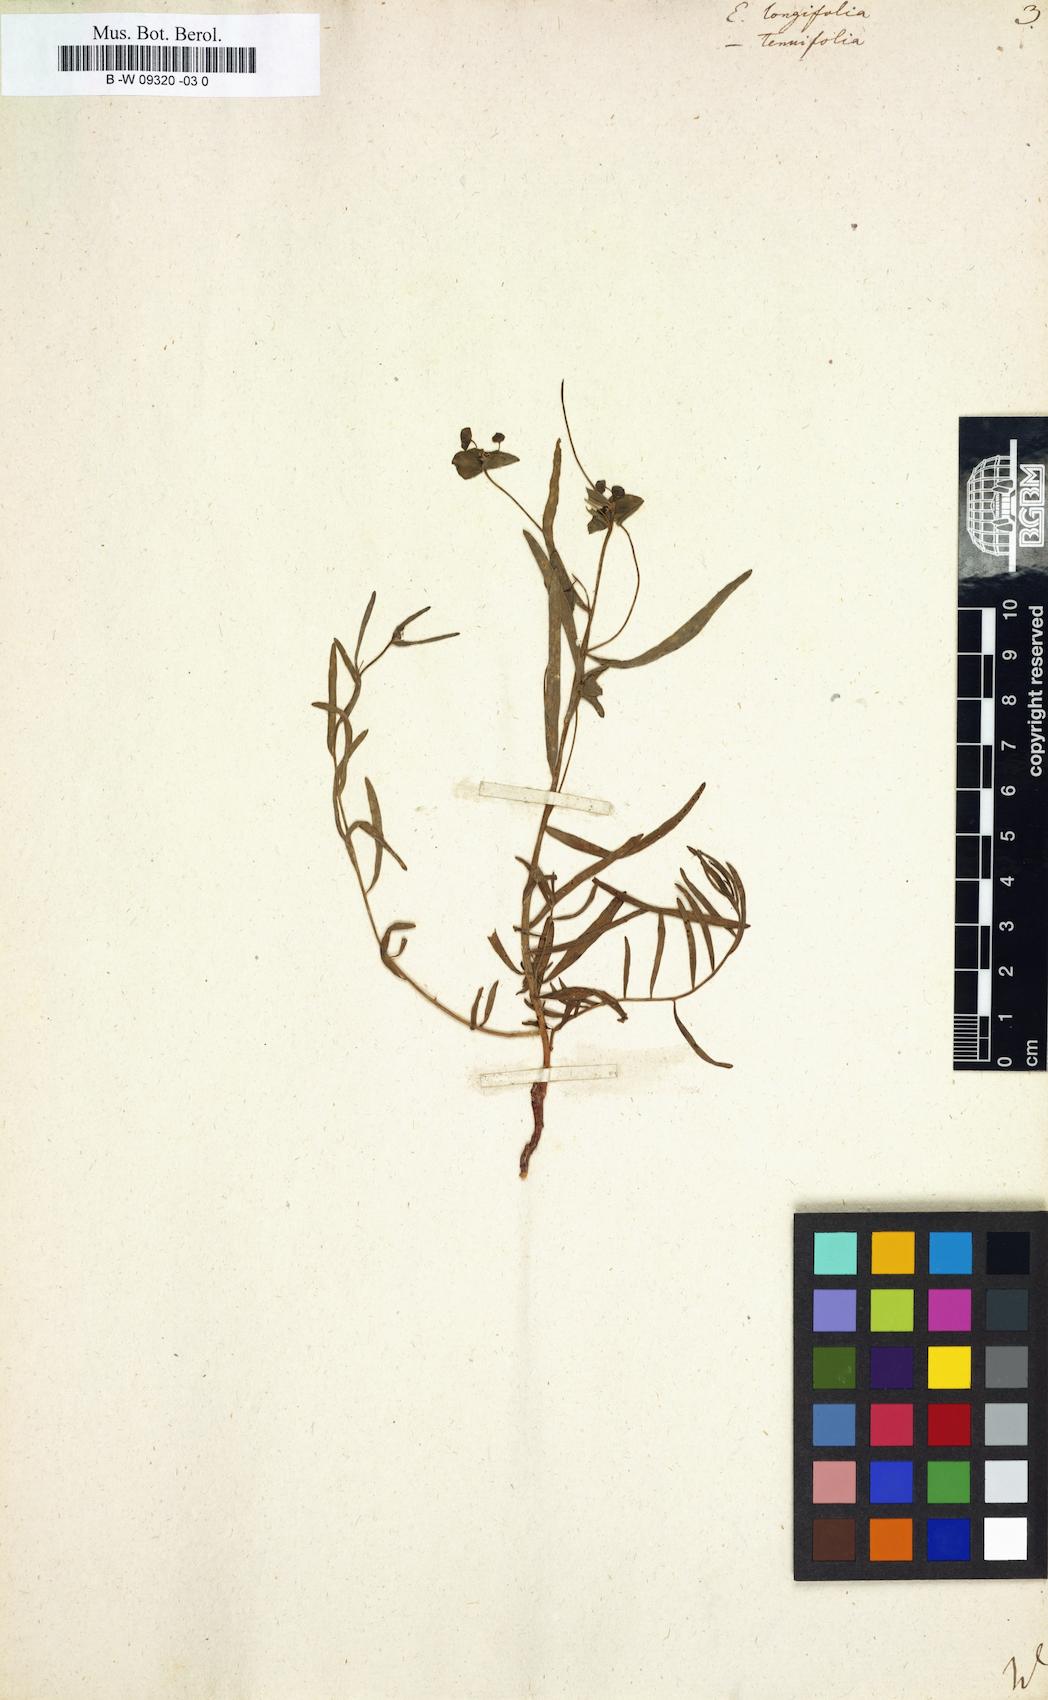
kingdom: Plantae
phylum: Tracheophyta
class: Magnoliopsida
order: Malpighiales
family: Euphorbiaceae
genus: Euphorbia
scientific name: Euphorbia boissieri
